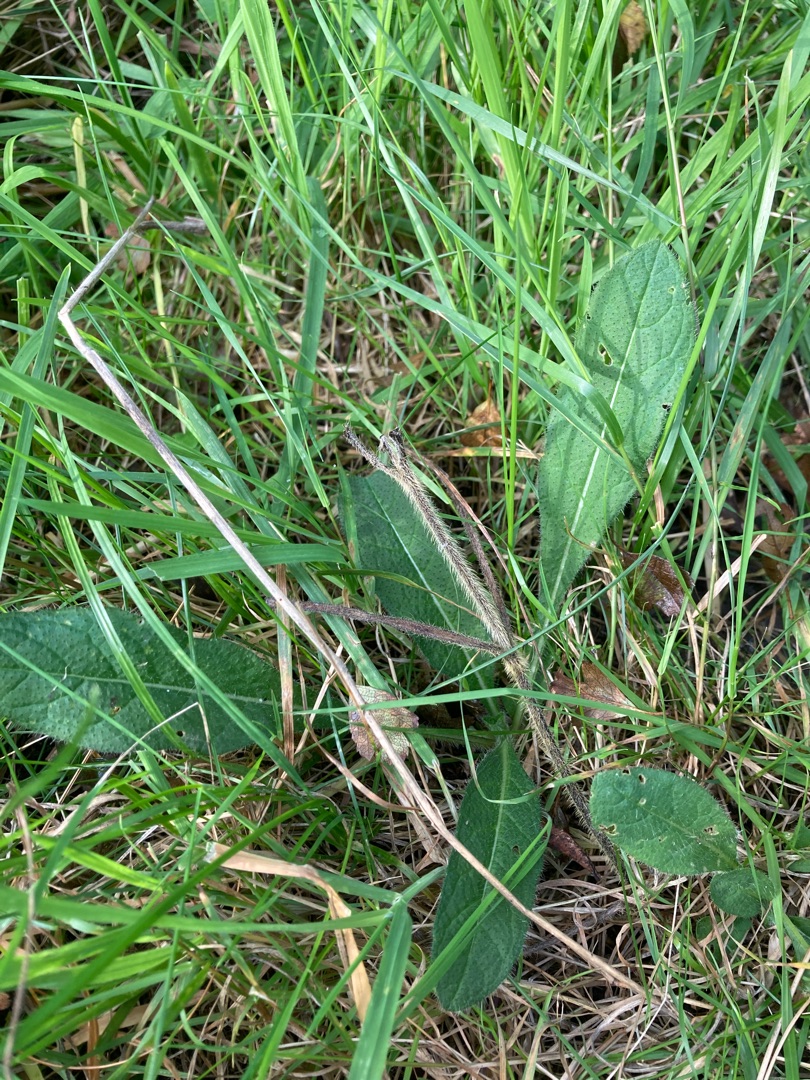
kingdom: Plantae
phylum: Tracheophyta
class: Magnoliopsida
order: Dipsacales
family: Caprifoliaceae
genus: Knautia
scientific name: Knautia arvensis
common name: Blåhat
